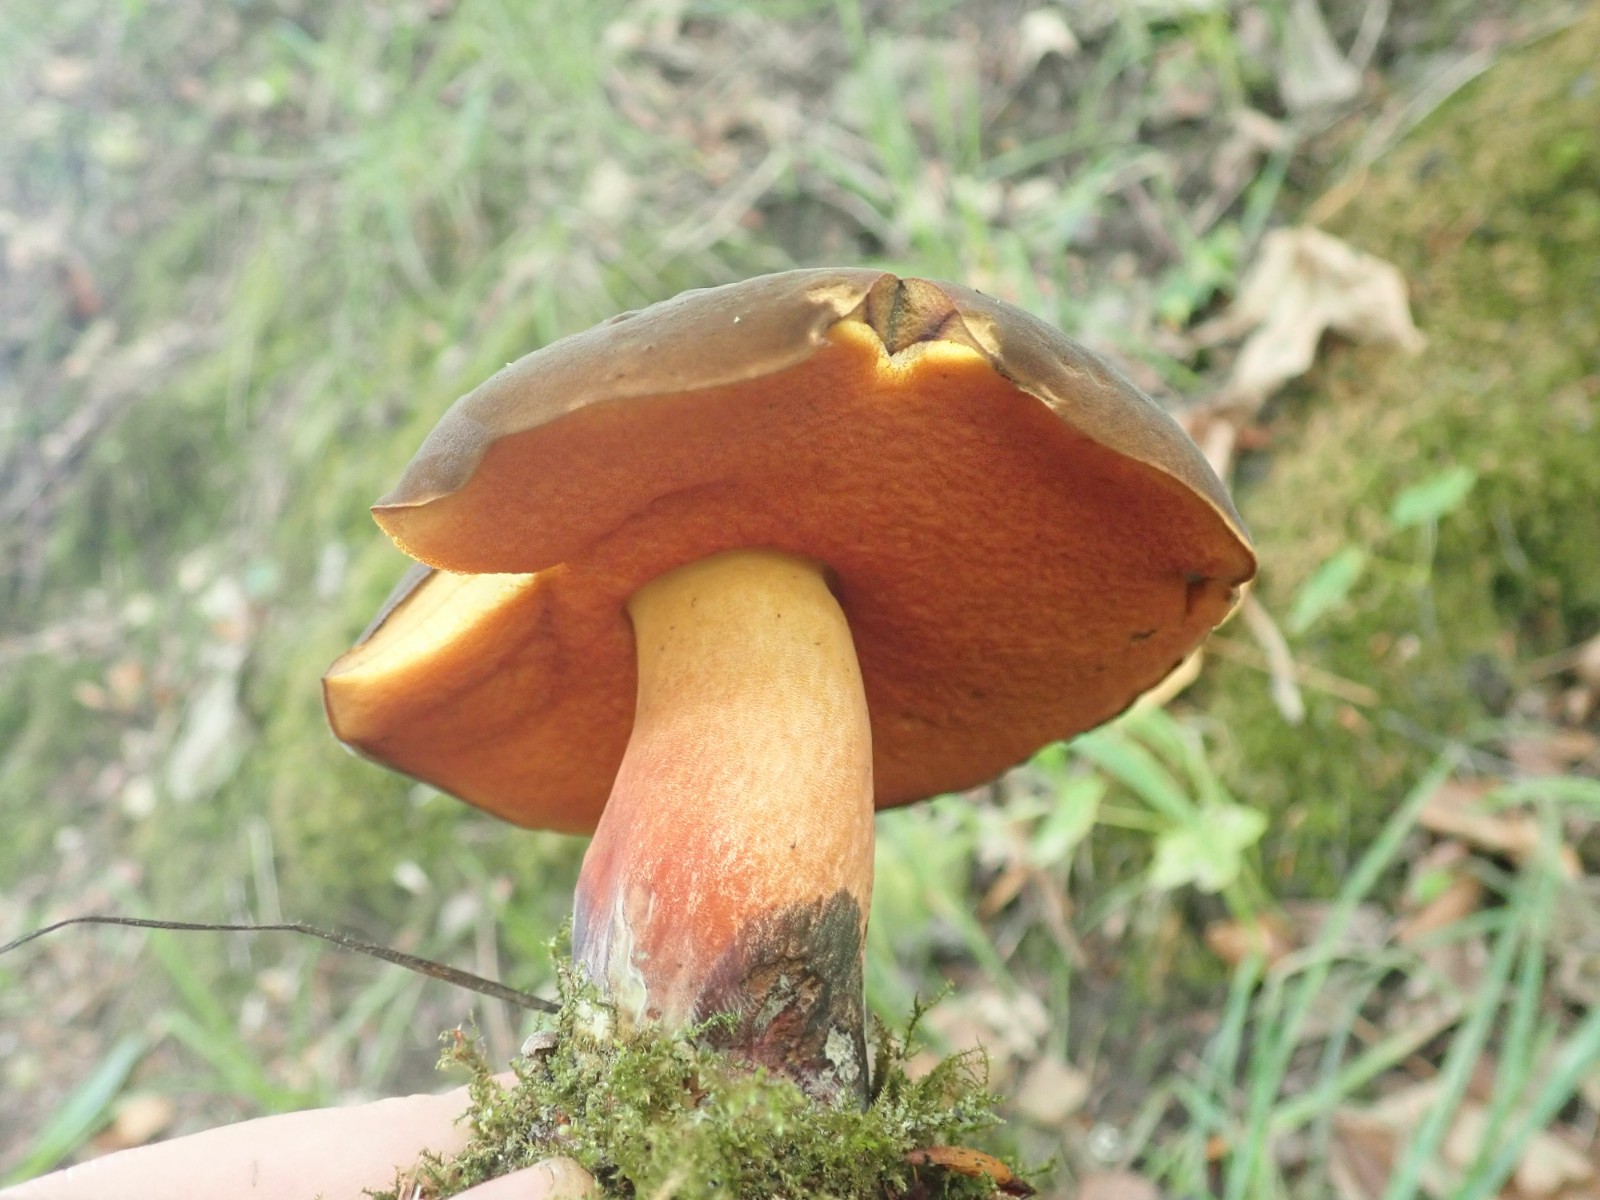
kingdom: Fungi
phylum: Basidiomycota
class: Agaricomycetes
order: Boletales
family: Boletaceae
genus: Neoboletus
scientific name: Neoboletus erythropus
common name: punktstokket indigorørhat
